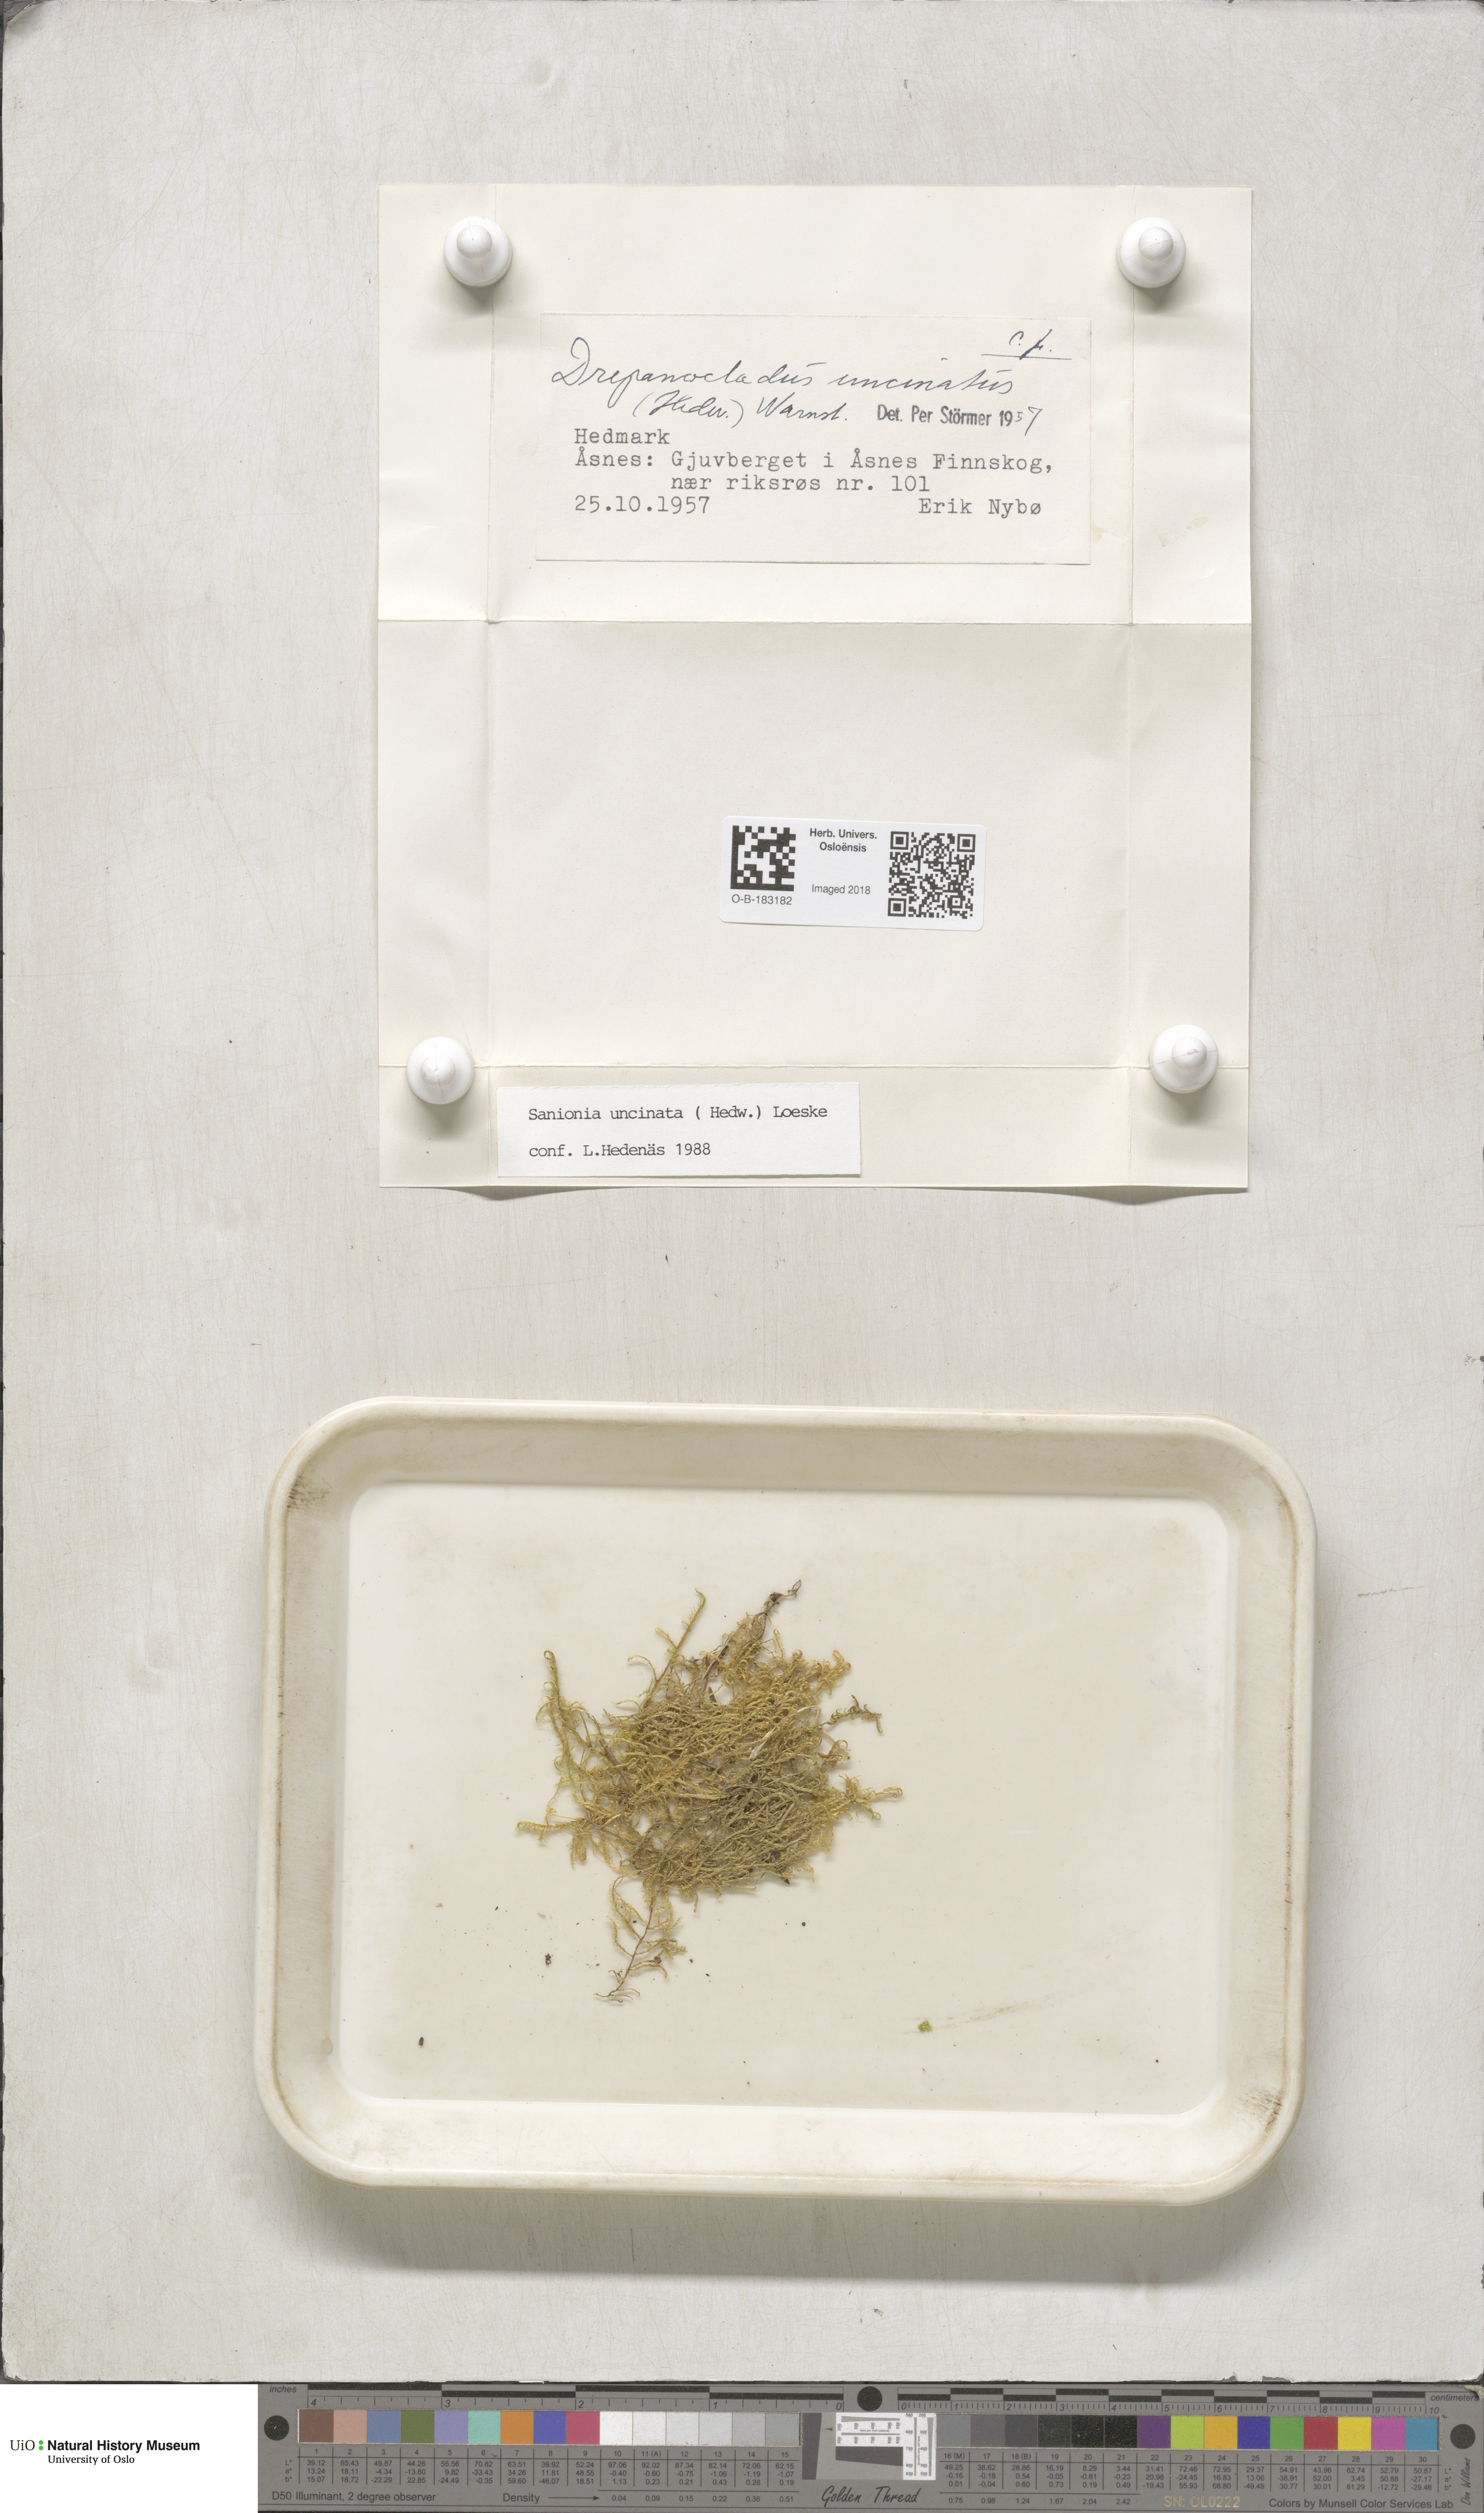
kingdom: Plantae
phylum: Bryophyta
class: Bryopsida
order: Hypnales
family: Scorpidiaceae
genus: Sanionia
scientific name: Sanionia uncinata
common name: Sickle moss
